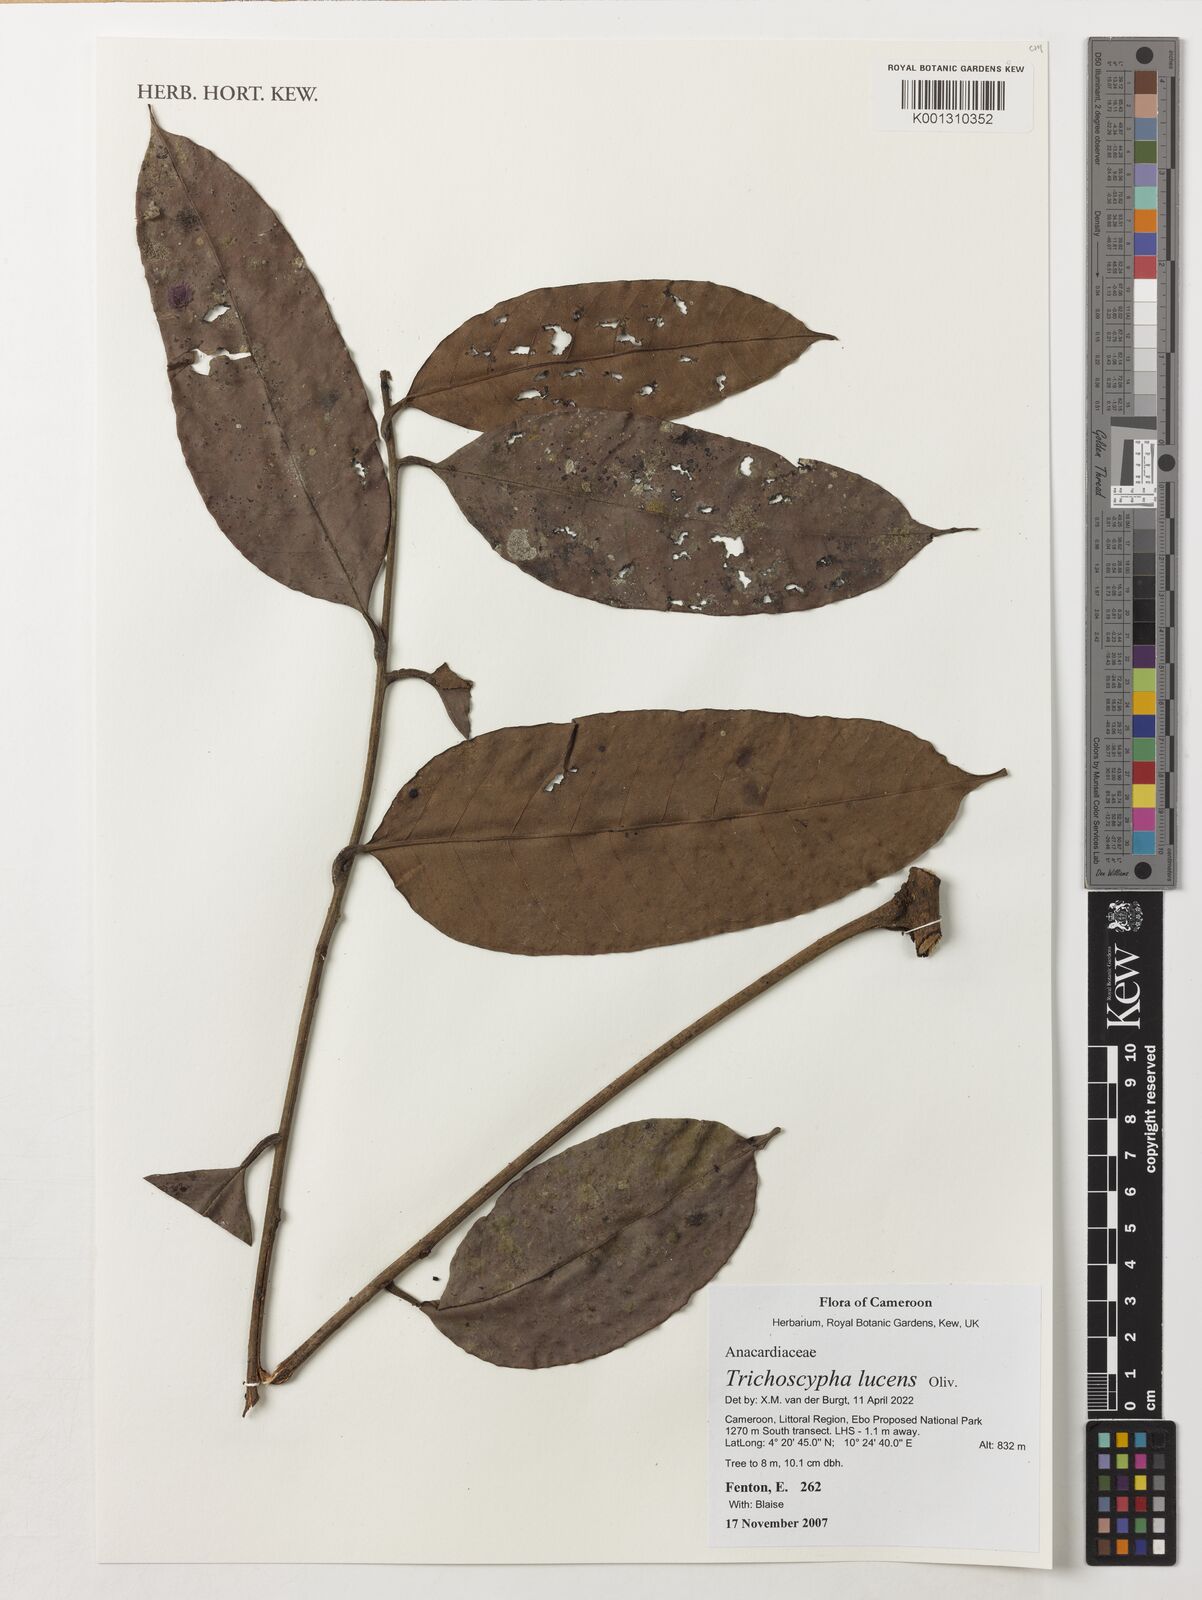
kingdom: Plantae
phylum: Tracheophyta
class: Magnoliopsida
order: Sapindales
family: Anacardiaceae
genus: Trichoscypha
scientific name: Trichoscypha lucens
